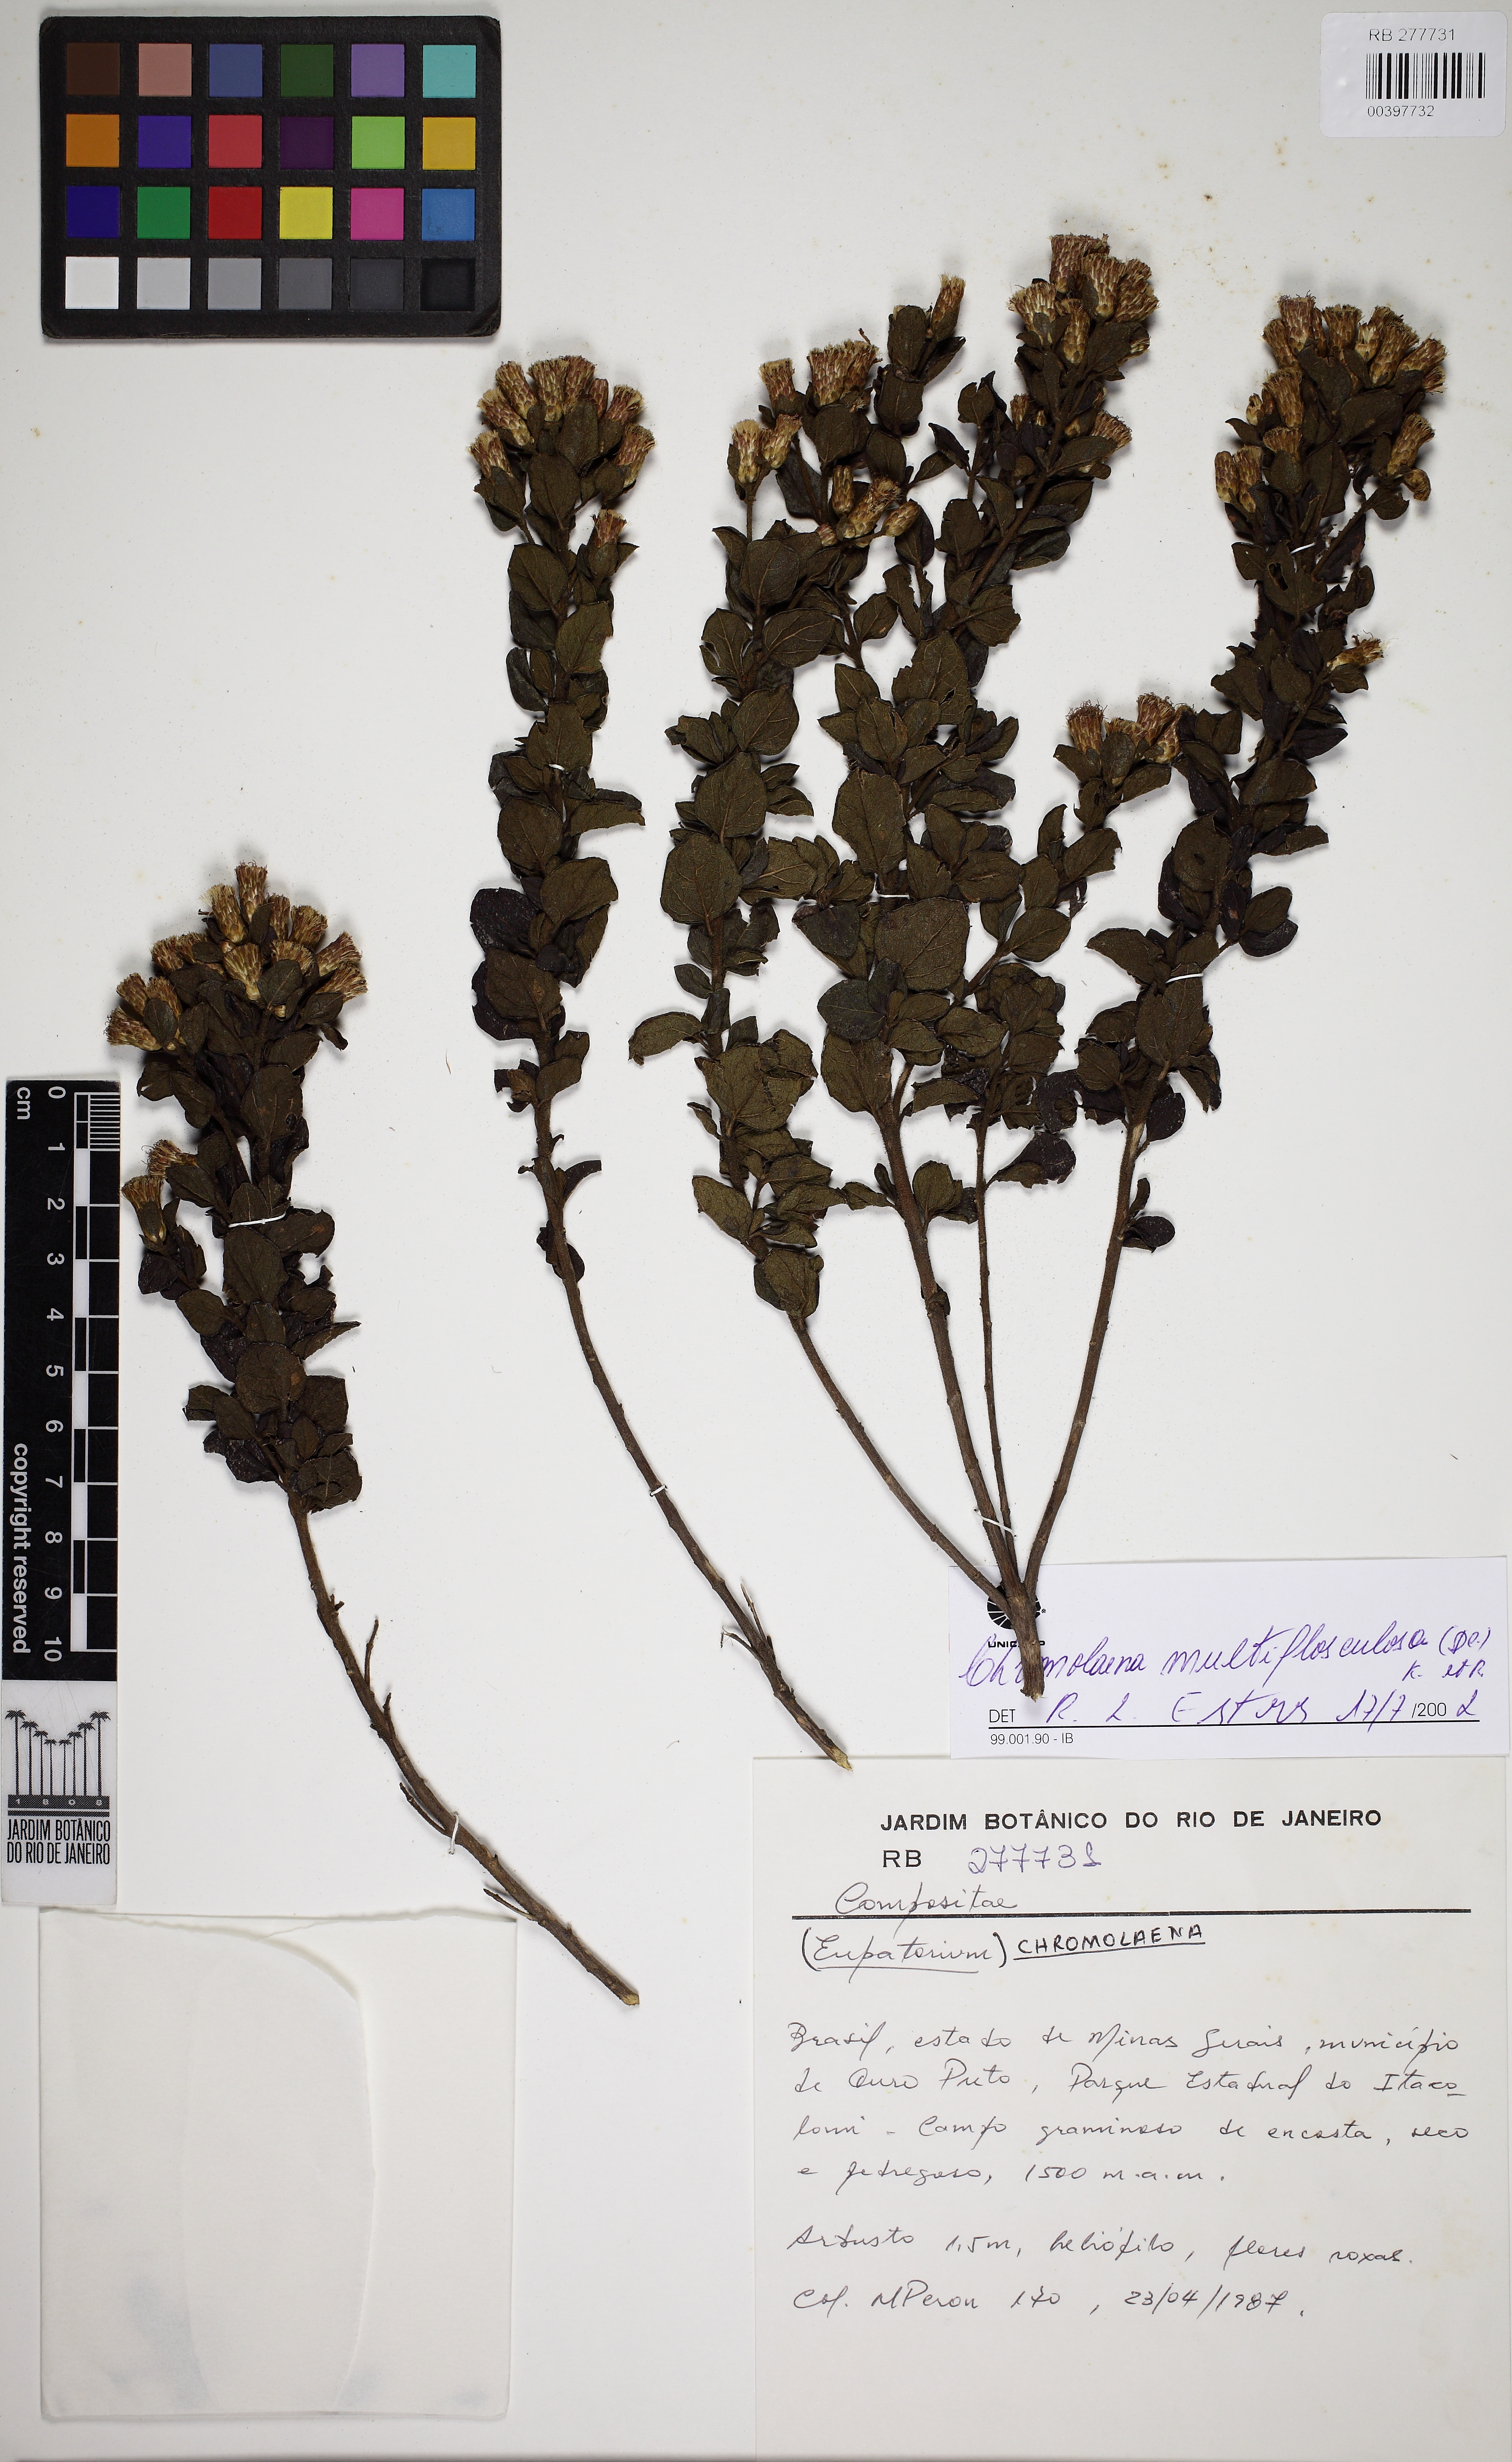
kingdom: Plantae
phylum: Tracheophyta
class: Magnoliopsida
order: Asterales
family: Asteraceae
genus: Chromolaena
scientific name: Chromolaena multiflosculosa
